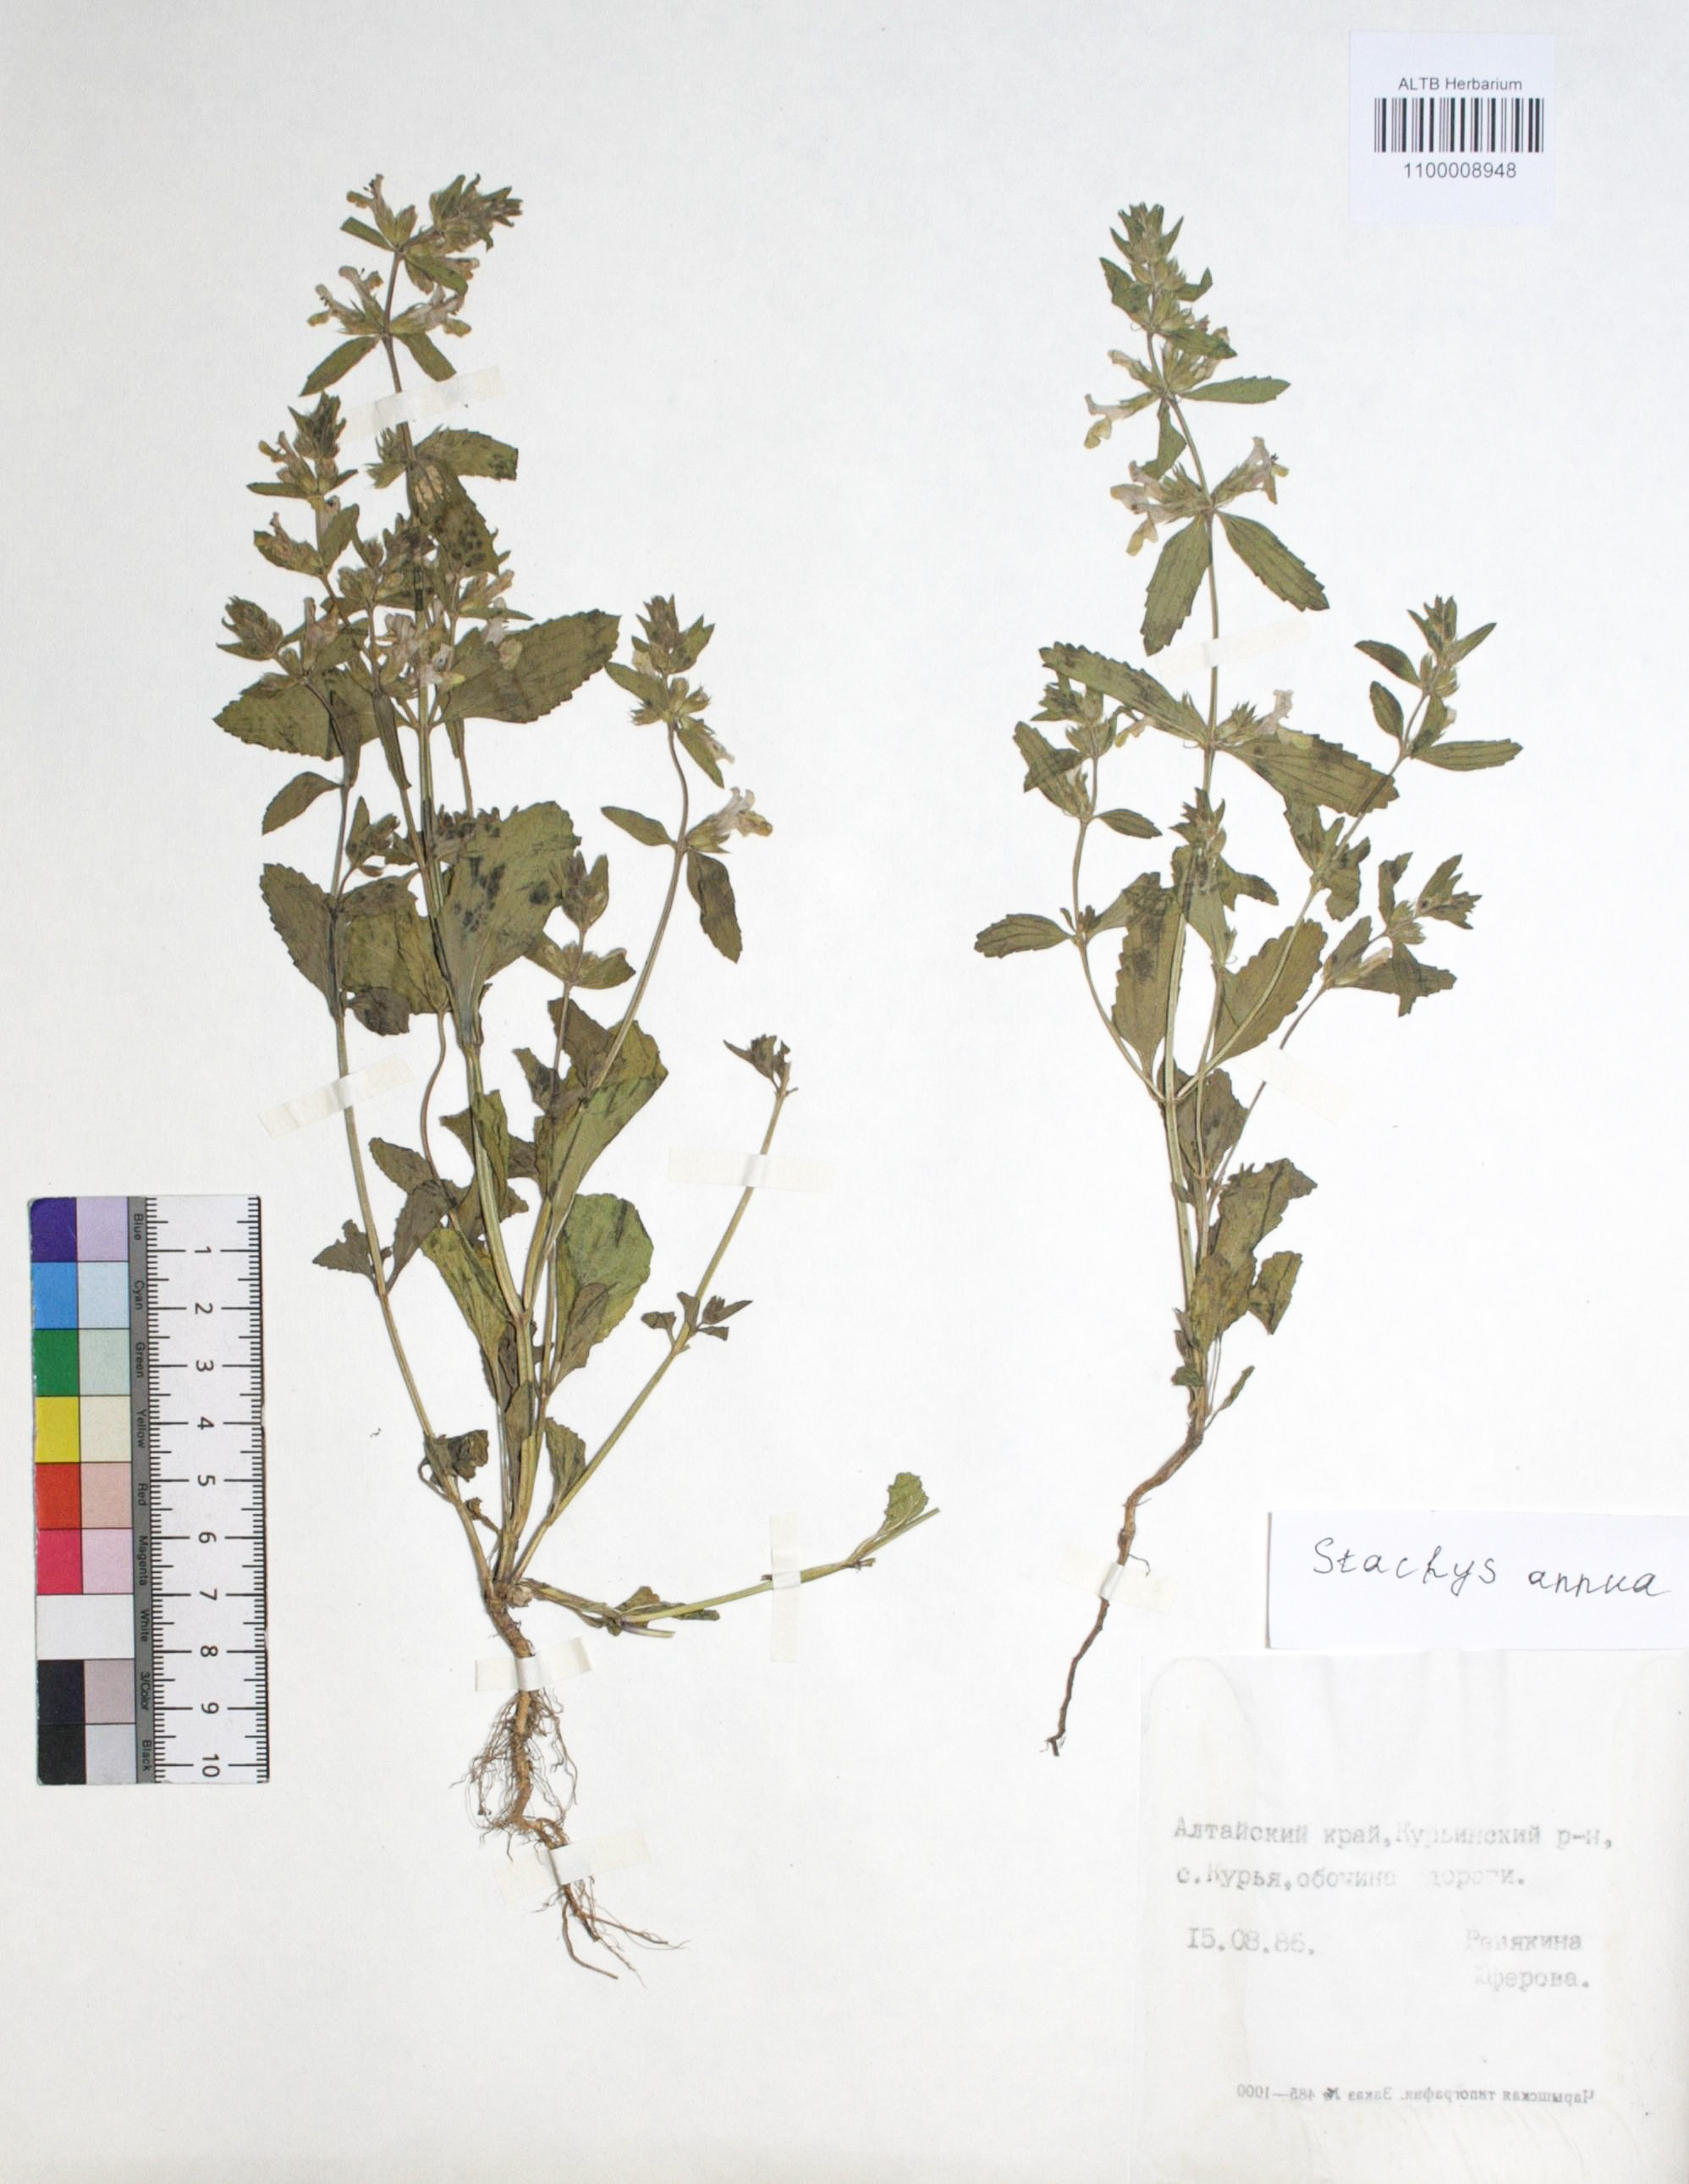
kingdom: Plantae
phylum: Tracheophyta
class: Magnoliopsida
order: Lamiales
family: Lamiaceae
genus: Stachys
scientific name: Stachys annua
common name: Annual yellow-woundwort
